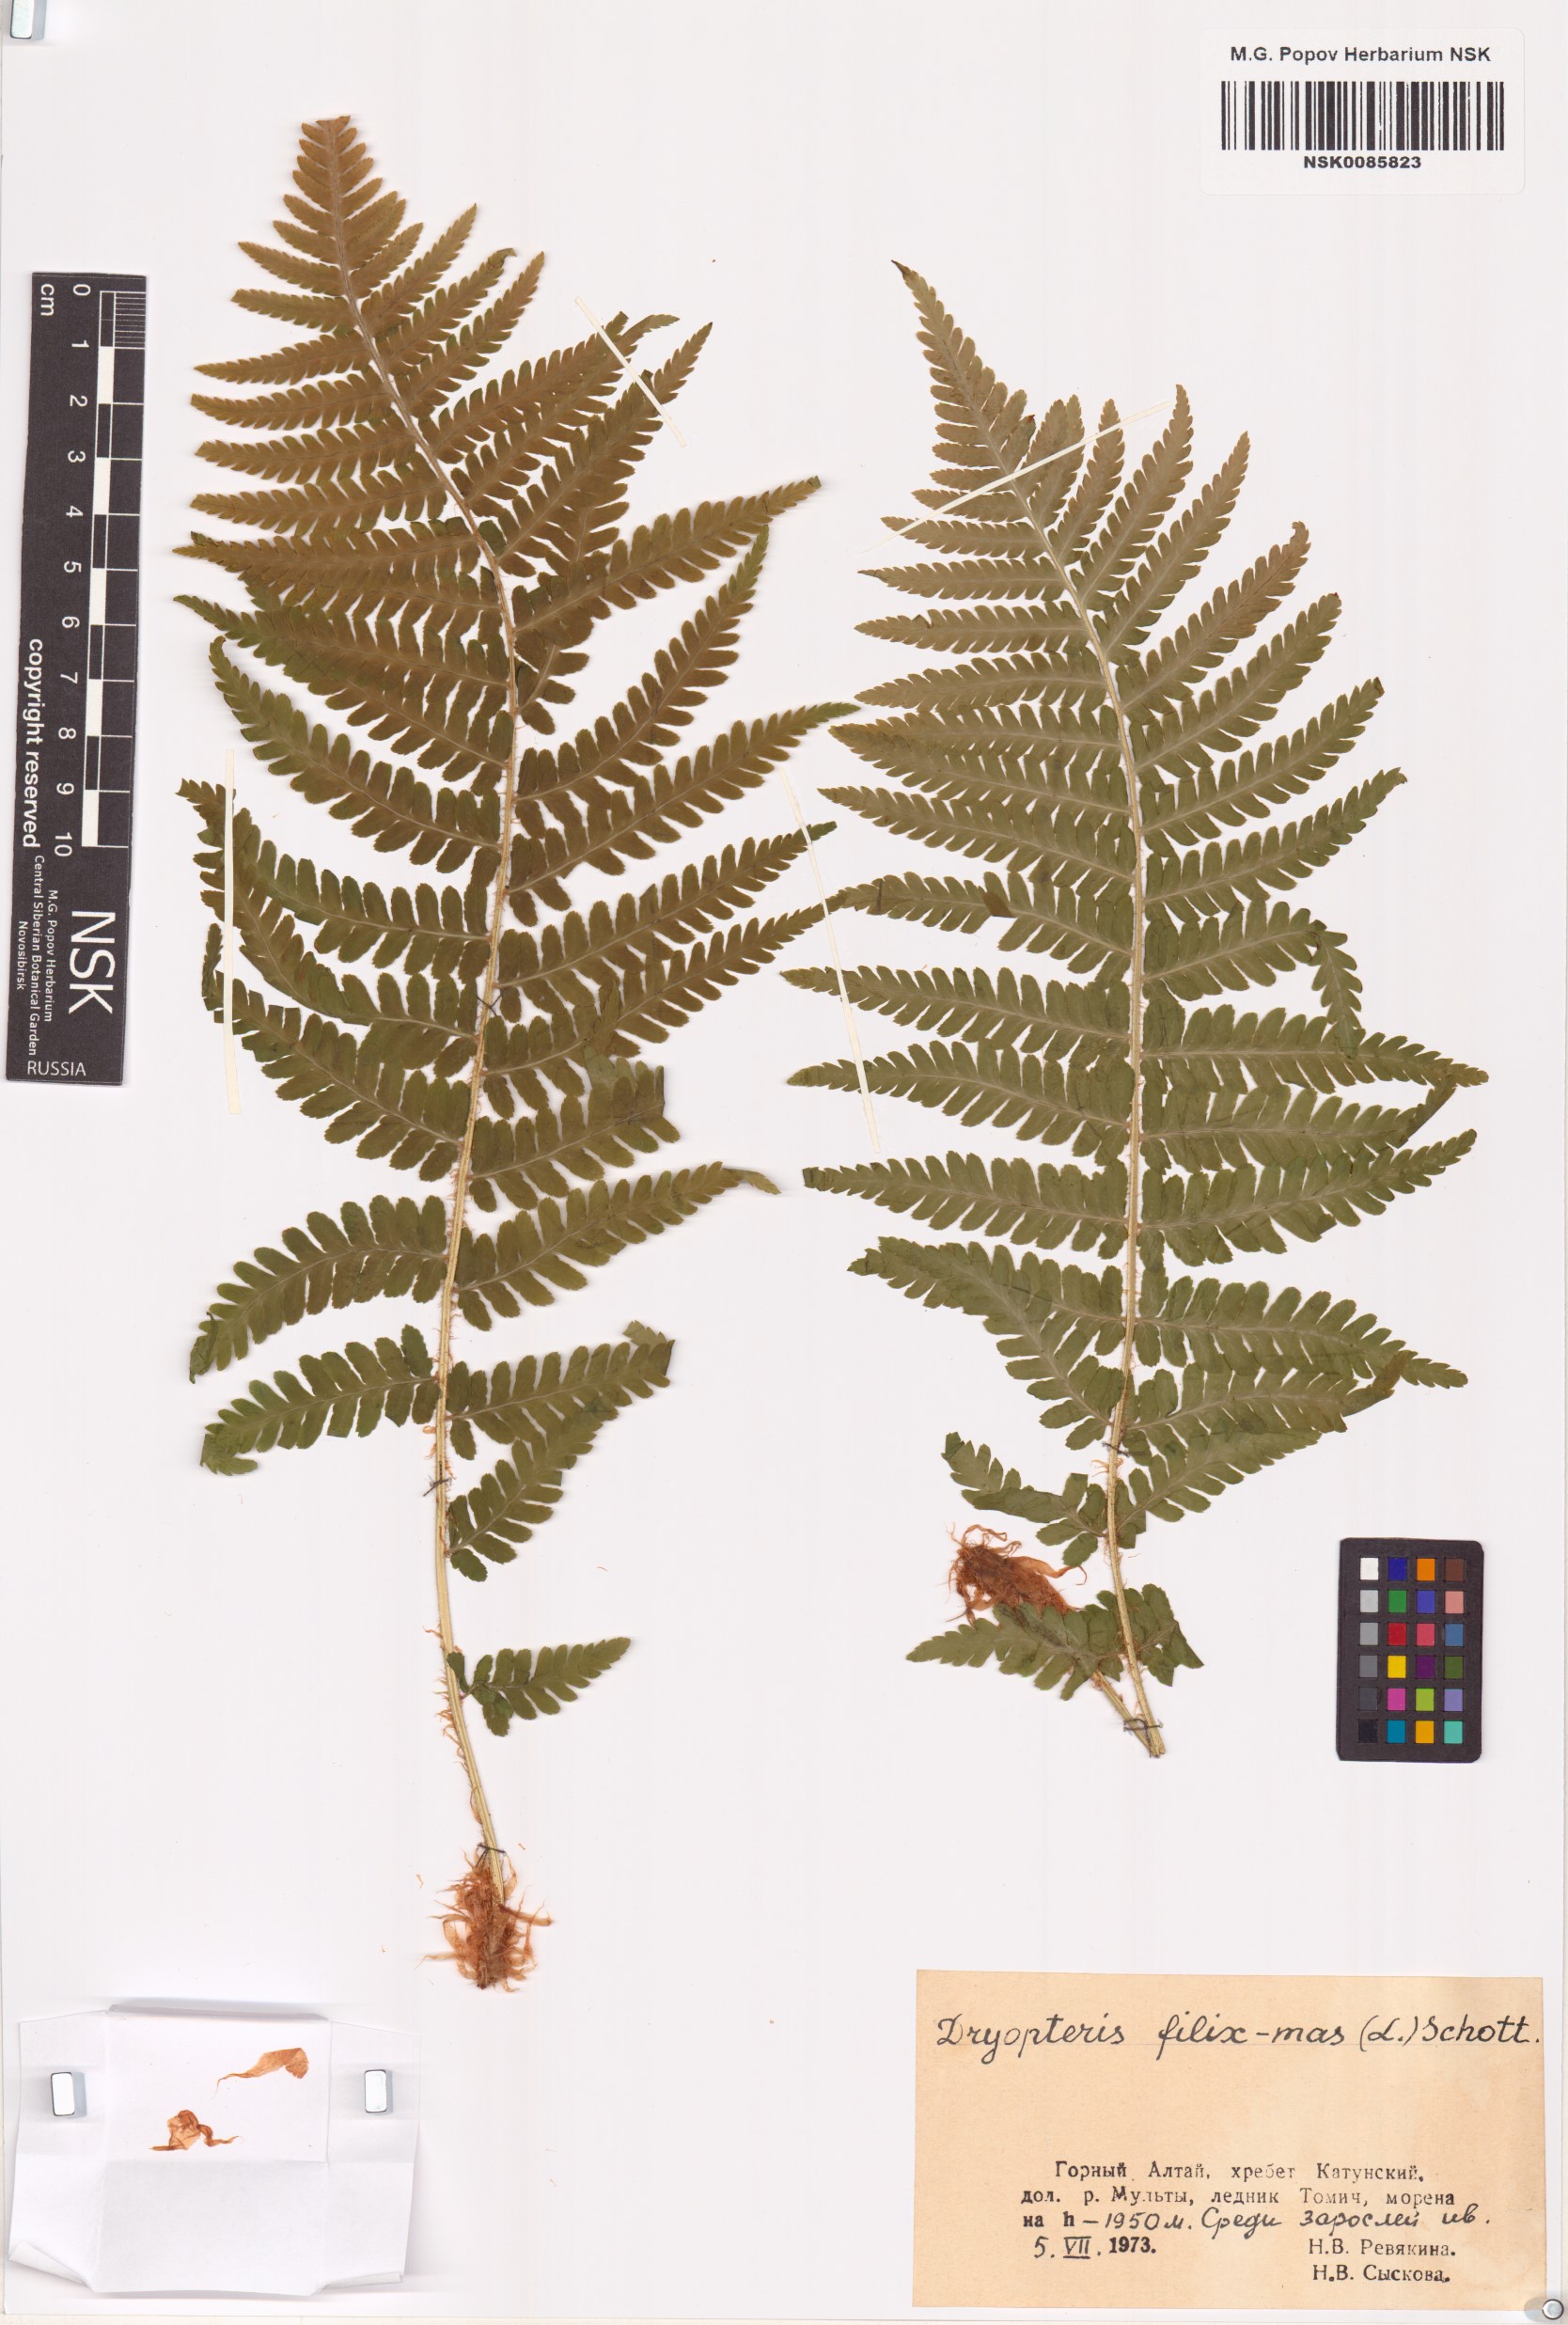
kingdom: Plantae
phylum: Tracheophyta
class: Polypodiopsida
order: Polypodiales
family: Dryopteridaceae
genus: Dryopteris
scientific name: Dryopteris filix-mas
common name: Male fern
